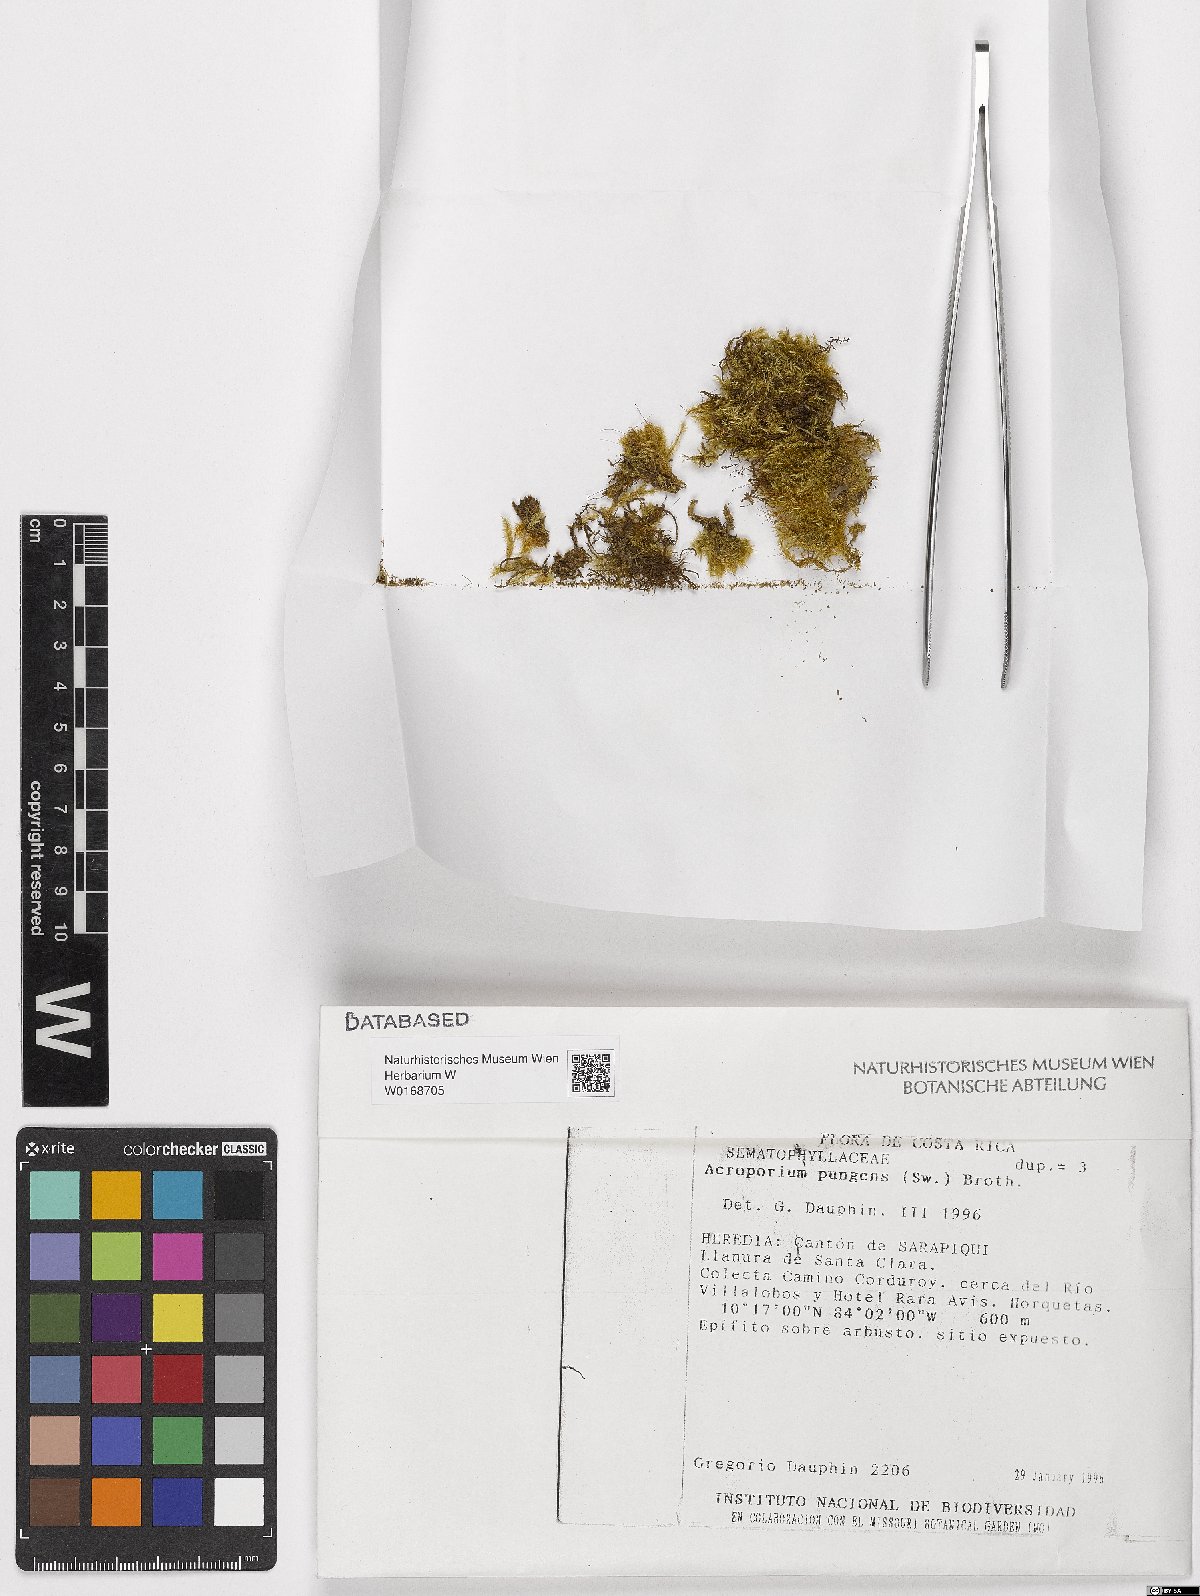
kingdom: Plantae
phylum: Bryophyta
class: Bryopsida
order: Hypnales
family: Sematophyllaceae
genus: Acroporium
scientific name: Acroporium pungens
